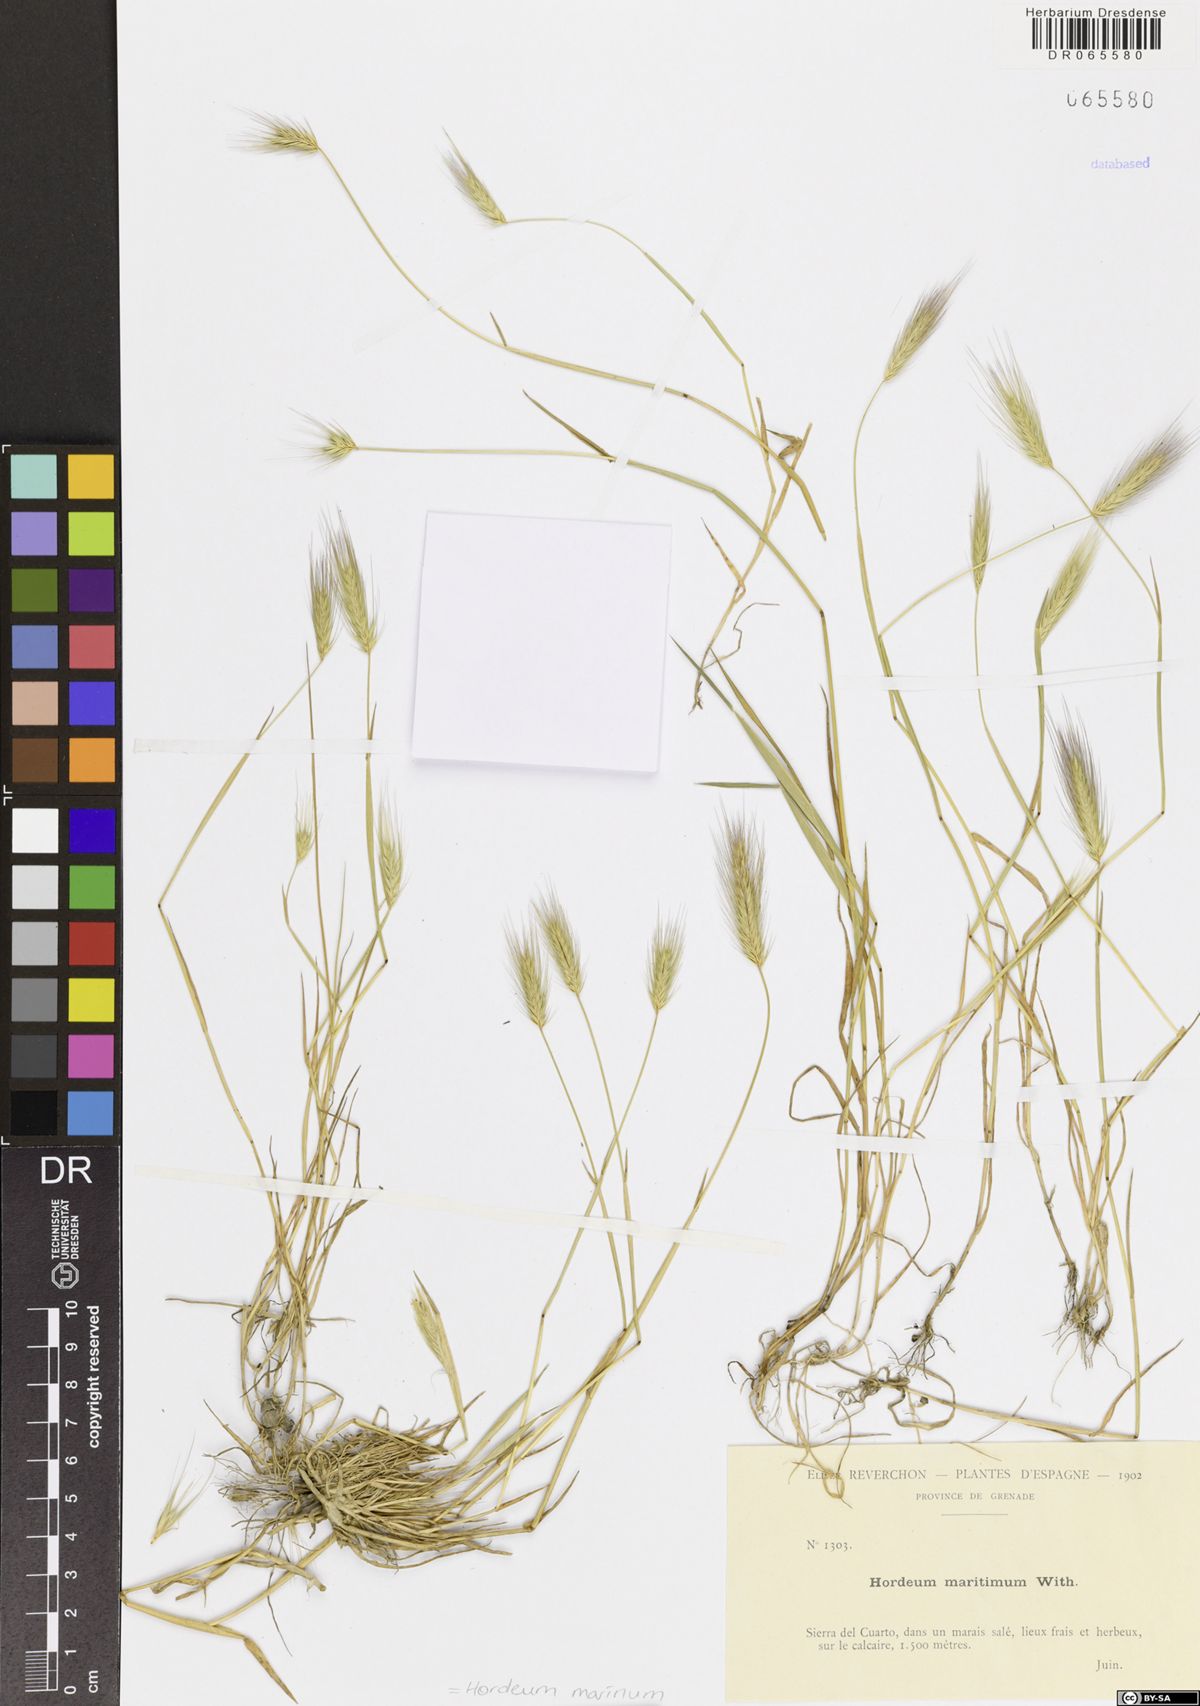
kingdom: Plantae
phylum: Tracheophyta
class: Liliopsida
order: Poales
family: Poaceae
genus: Hordeum
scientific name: Hordeum marinum
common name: Sea barley
